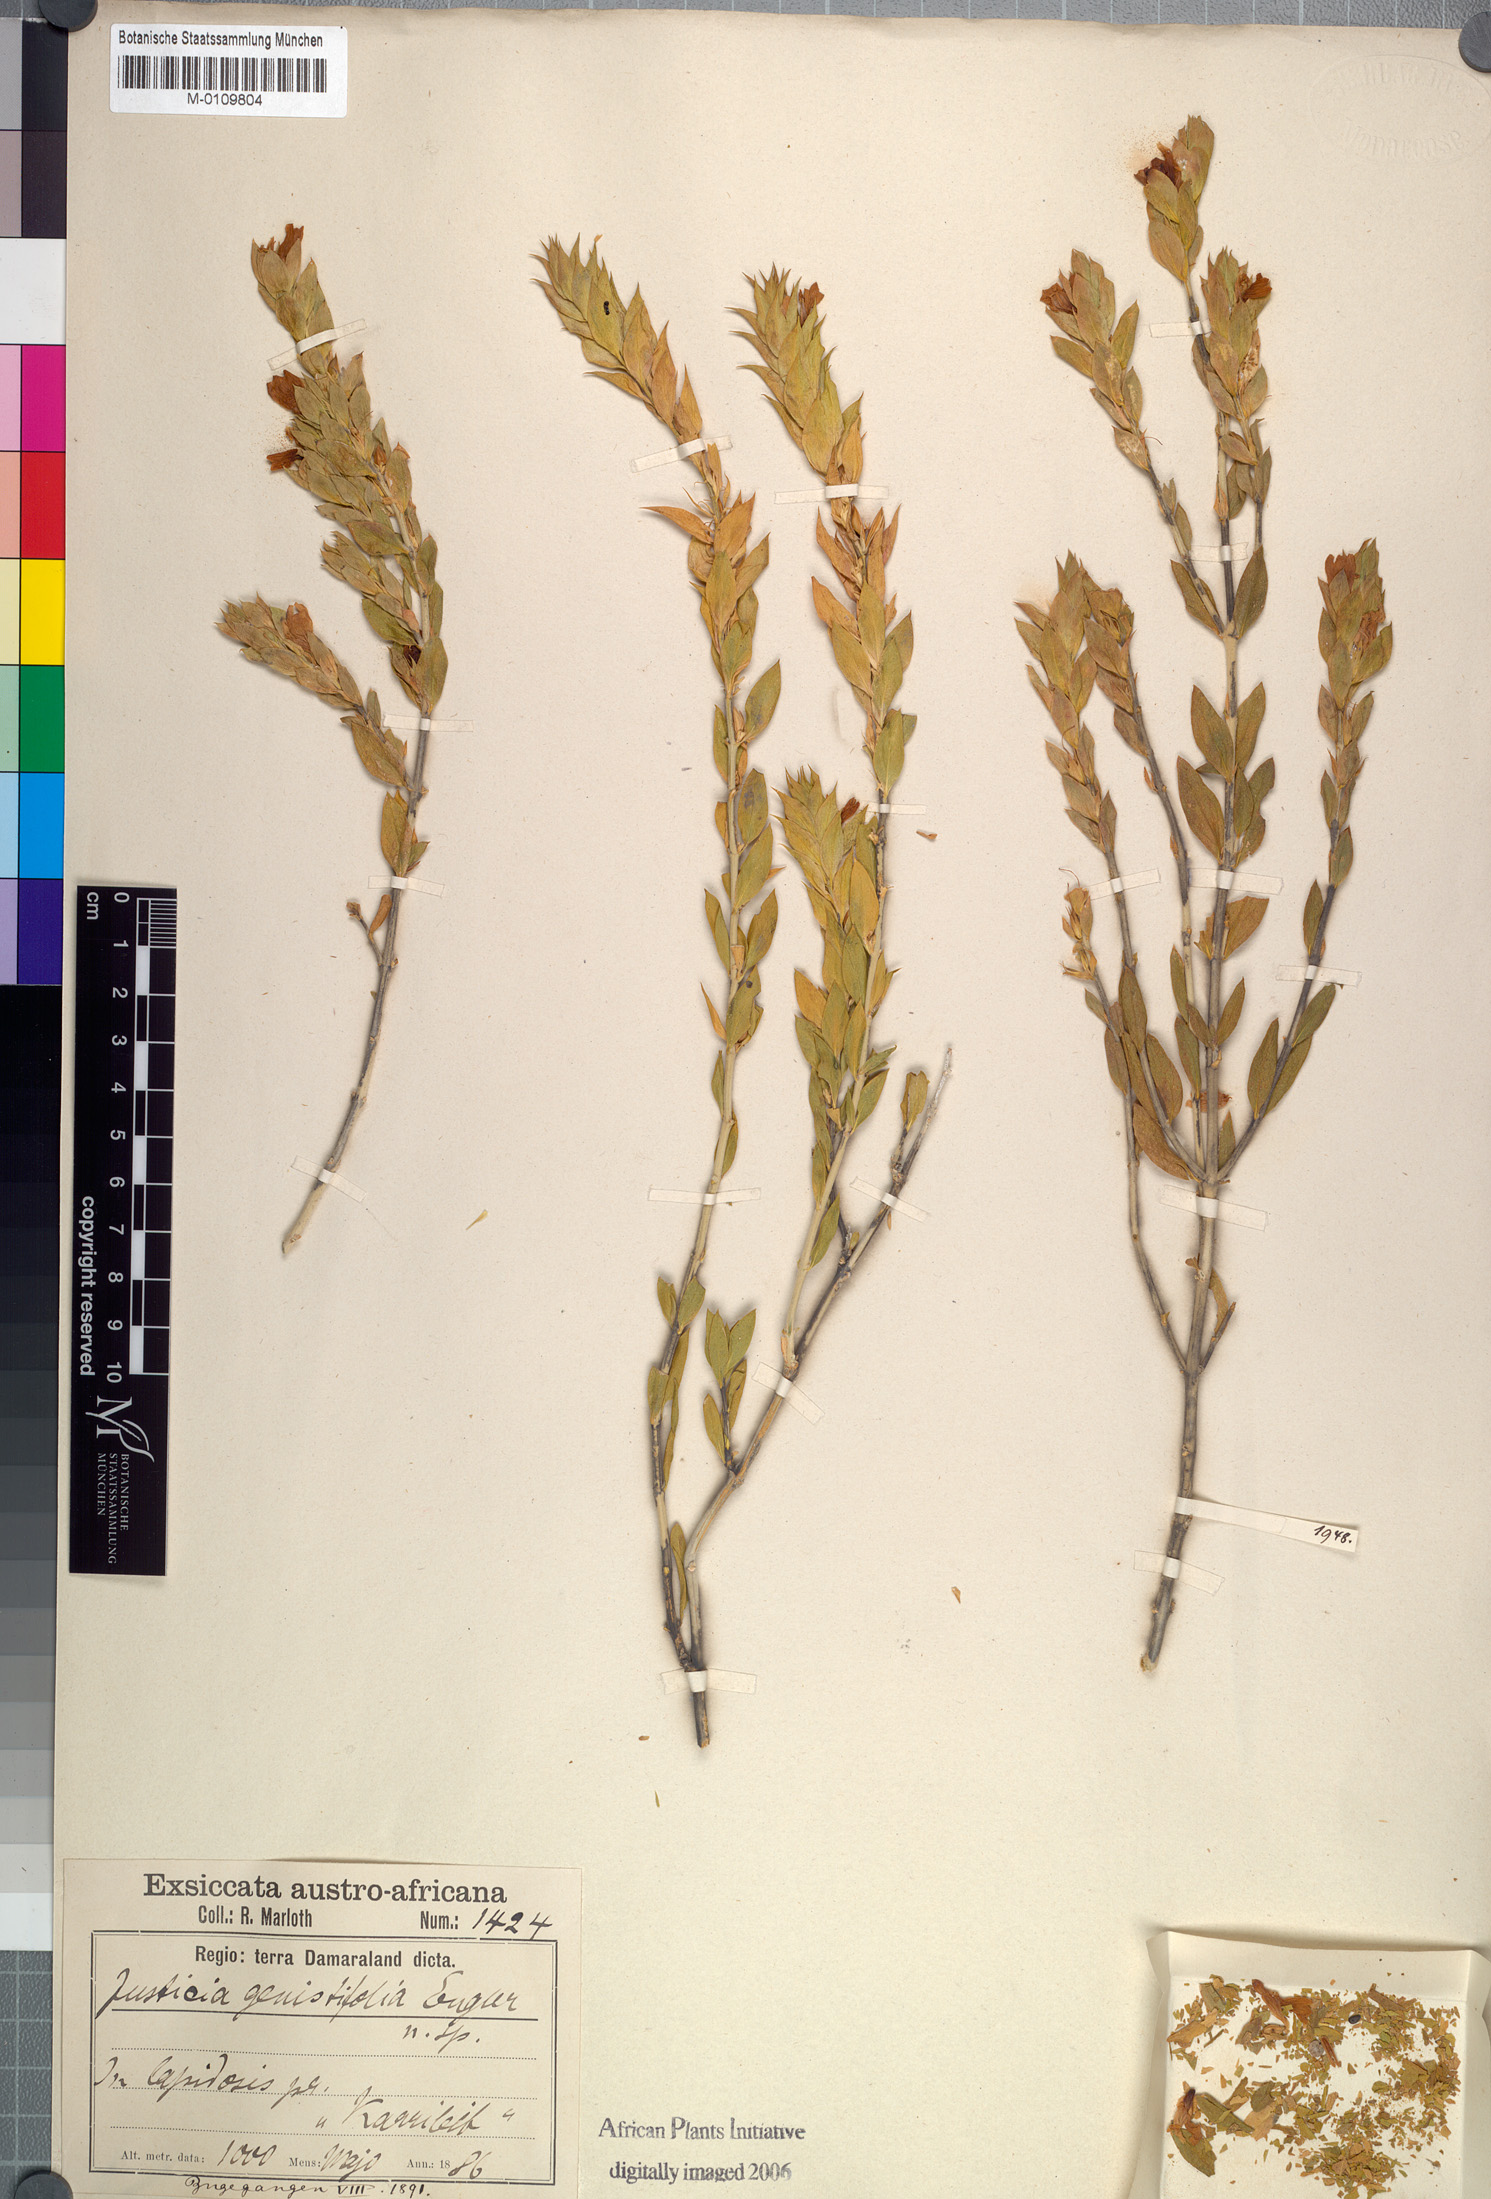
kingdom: Plantae
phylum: Tracheophyta
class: Magnoliopsida
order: Lamiales
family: Acanthaceae
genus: Monechma
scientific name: Monechma genistifolium
